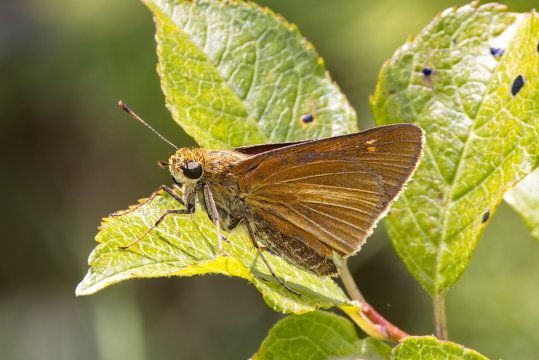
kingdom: Animalia
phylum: Arthropoda
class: Insecta
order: Lepidoptera
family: Hesperiidae
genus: Euphyes
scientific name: Euphyes dion
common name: Dion Skipper
